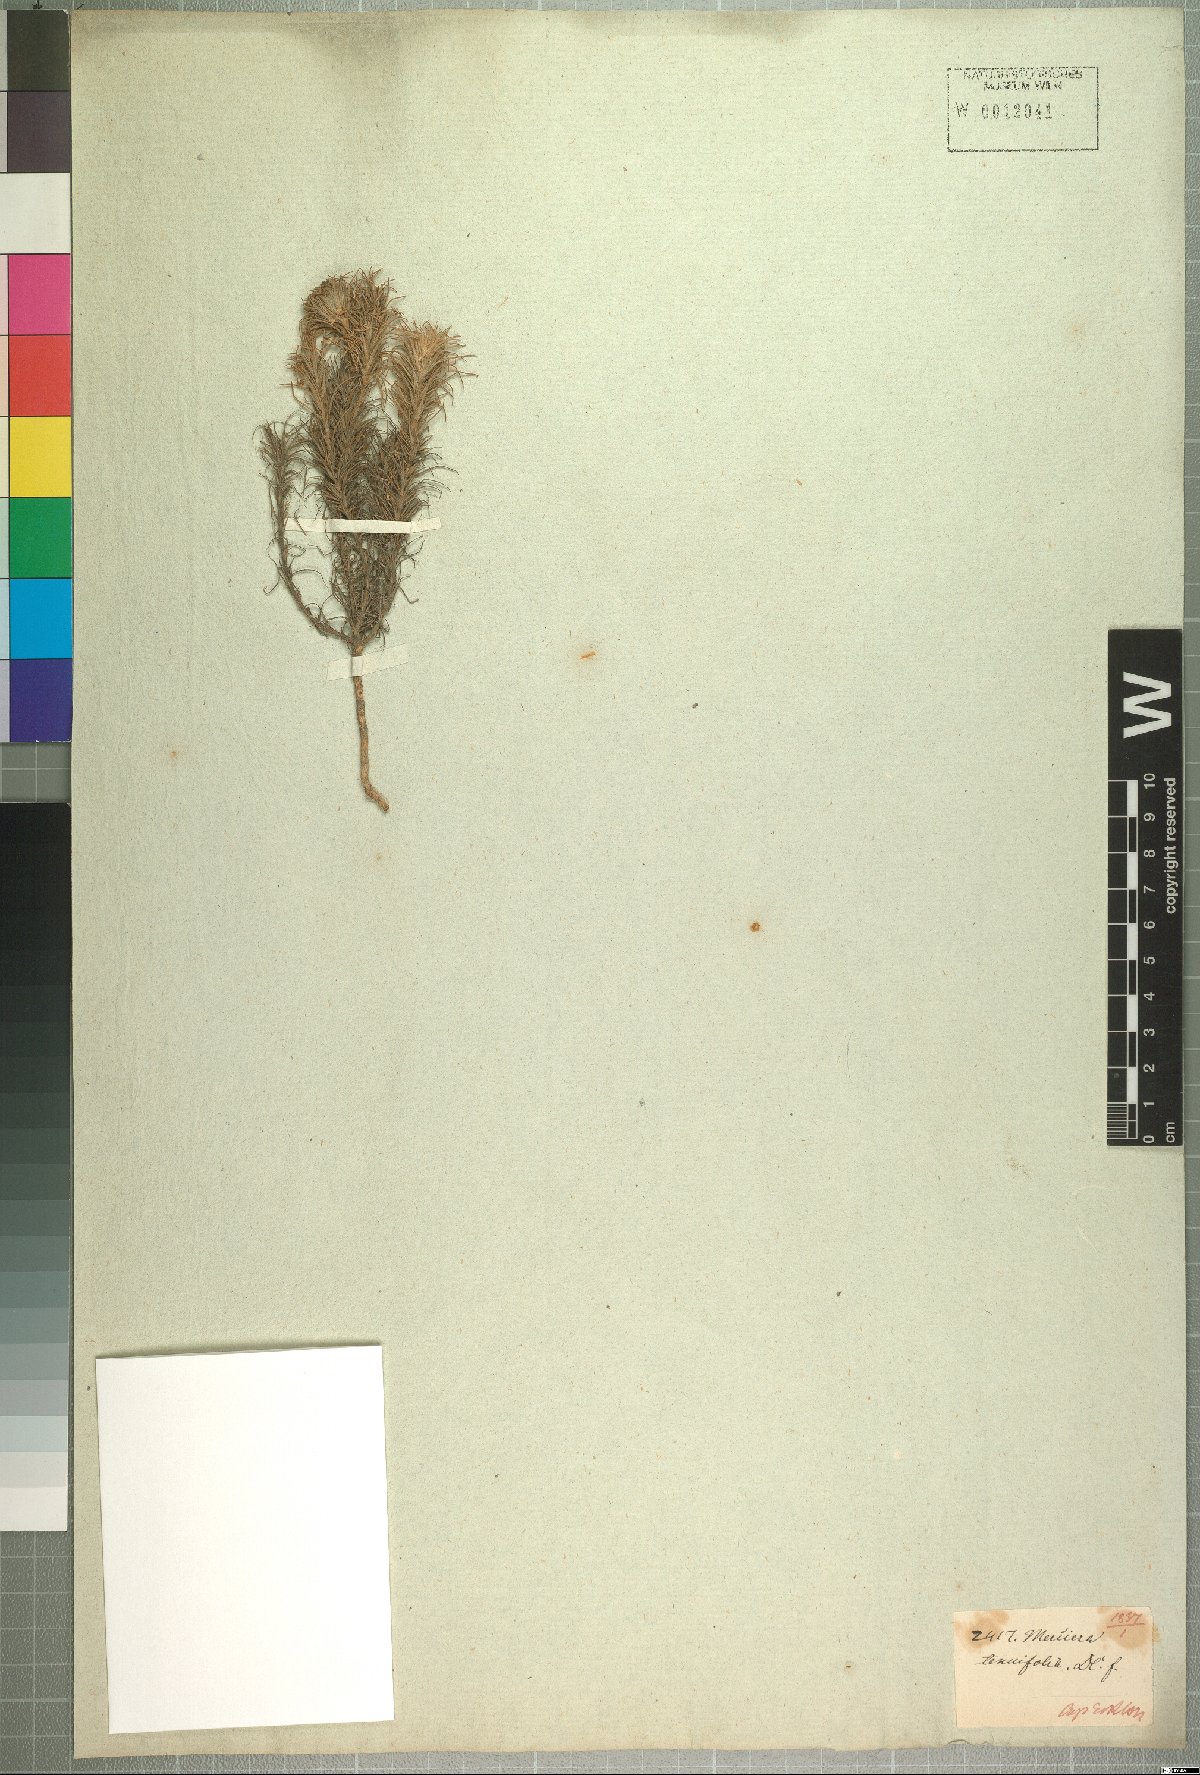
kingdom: Plantae
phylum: Tracheophyta
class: Magnoliopsida
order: Asterales
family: Campanulaceae
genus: Merciera
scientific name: Merciera tenuifolia
